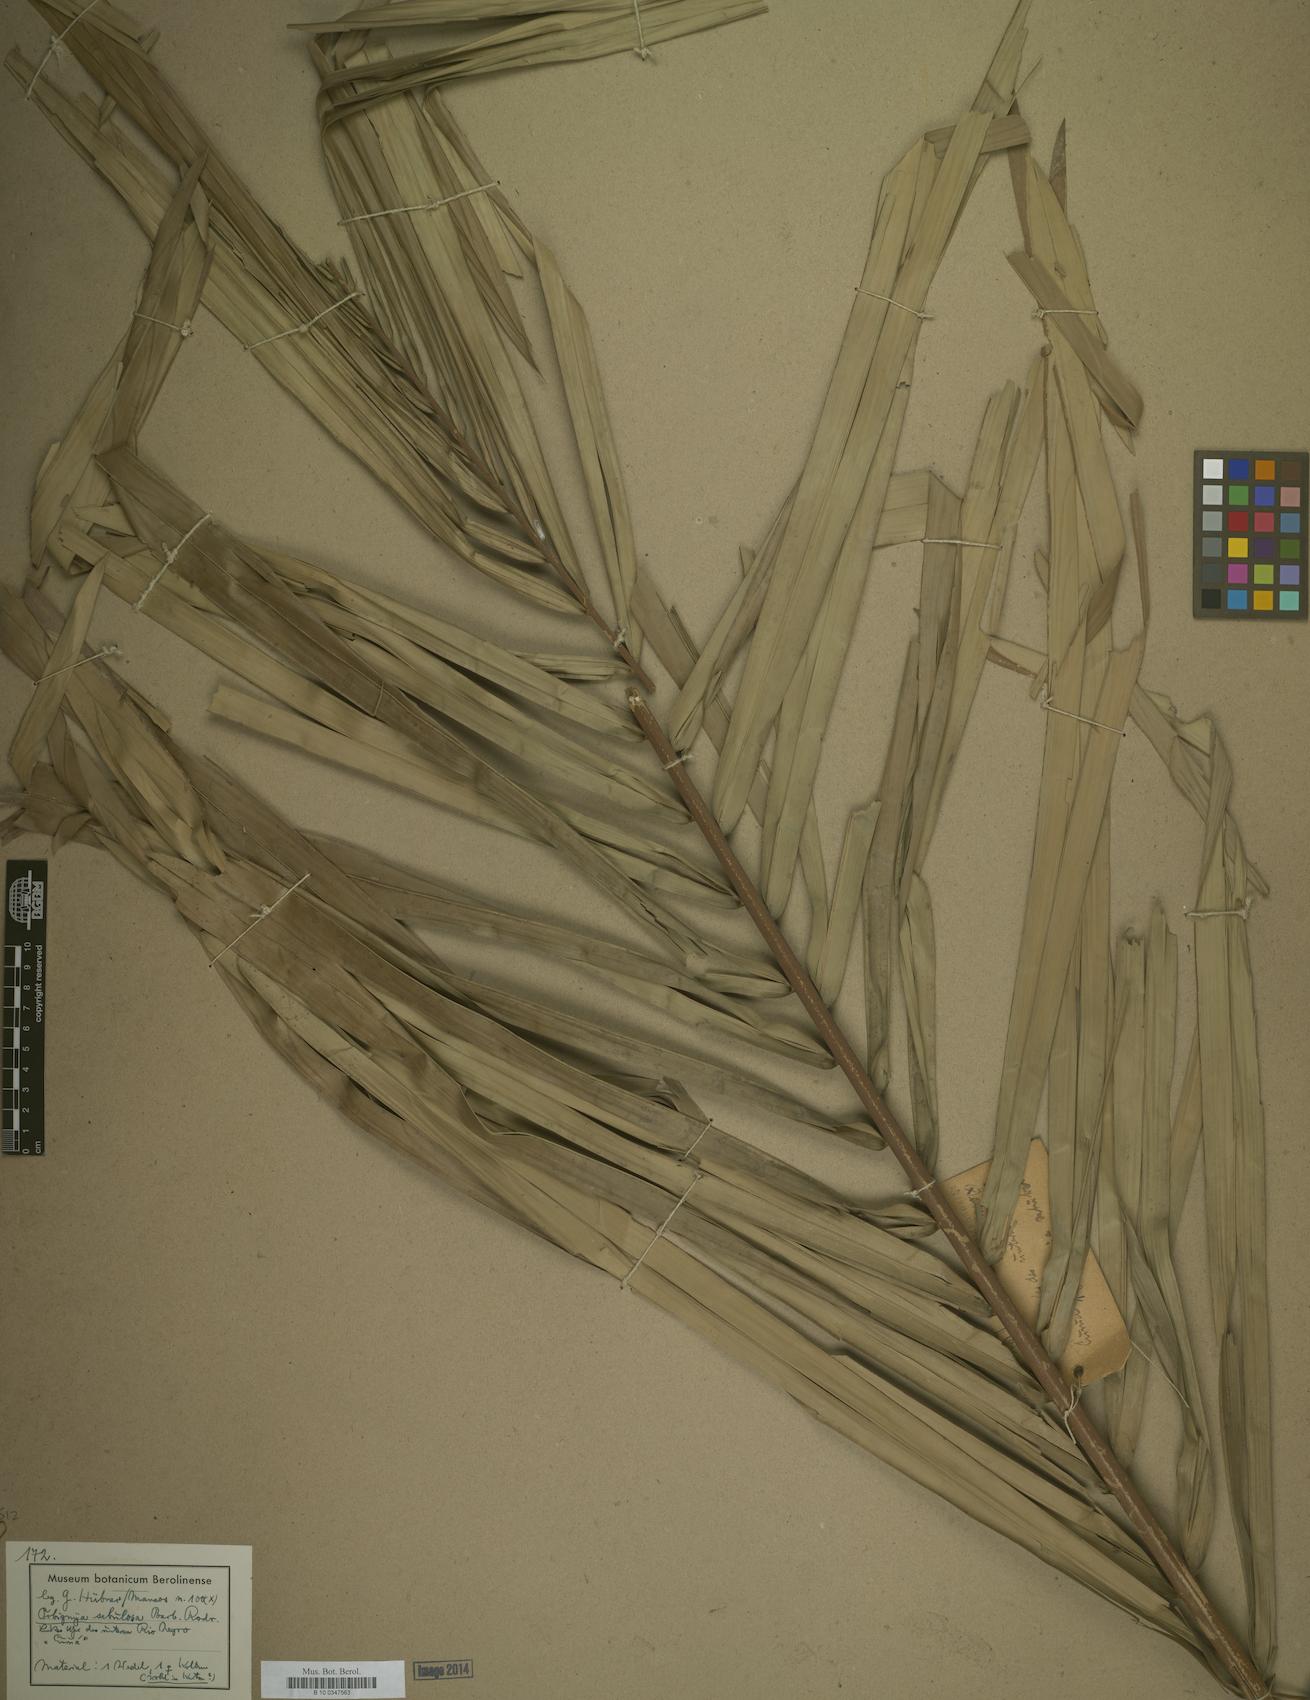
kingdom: Plantae
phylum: Tracheophyta
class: Liliopsida
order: Arecales
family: Arecaceae
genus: Attalea
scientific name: Attalea microcarpa
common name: Mountain maripa
